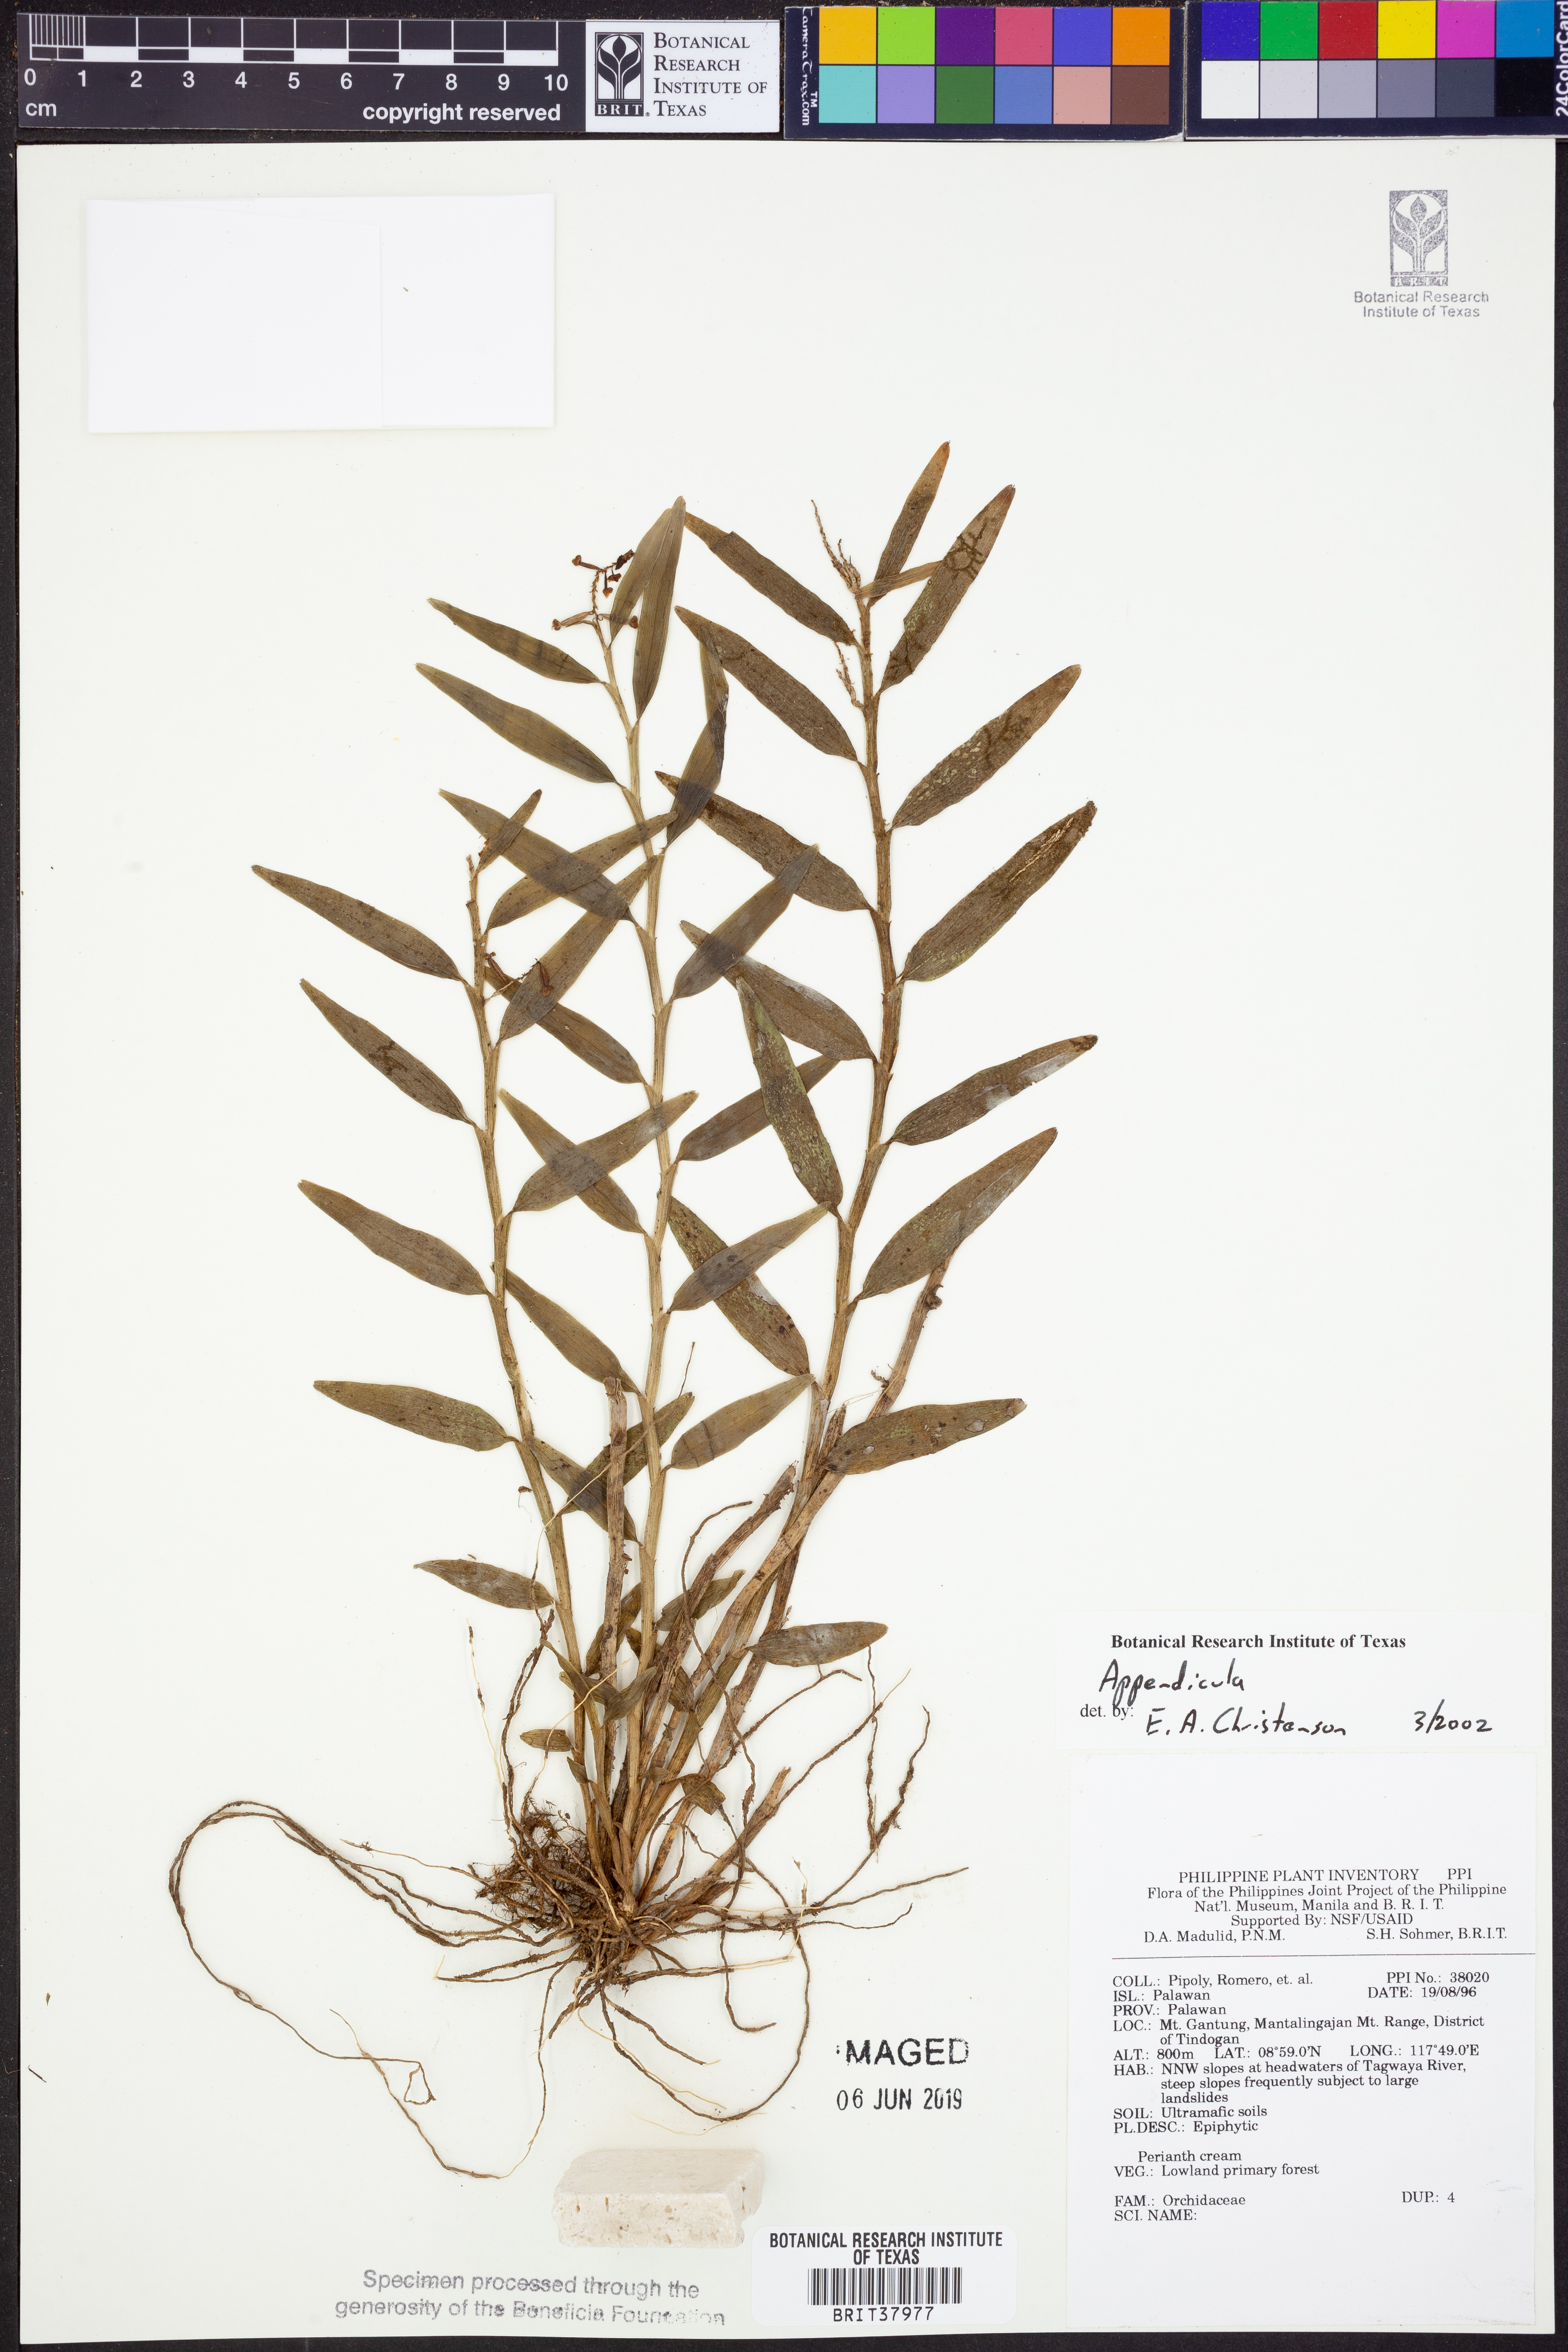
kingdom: Plantae
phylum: Tracheophyta
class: Liliopsida
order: Asparagales
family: Orchidaceae
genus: Appendicula
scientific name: Appendicula
